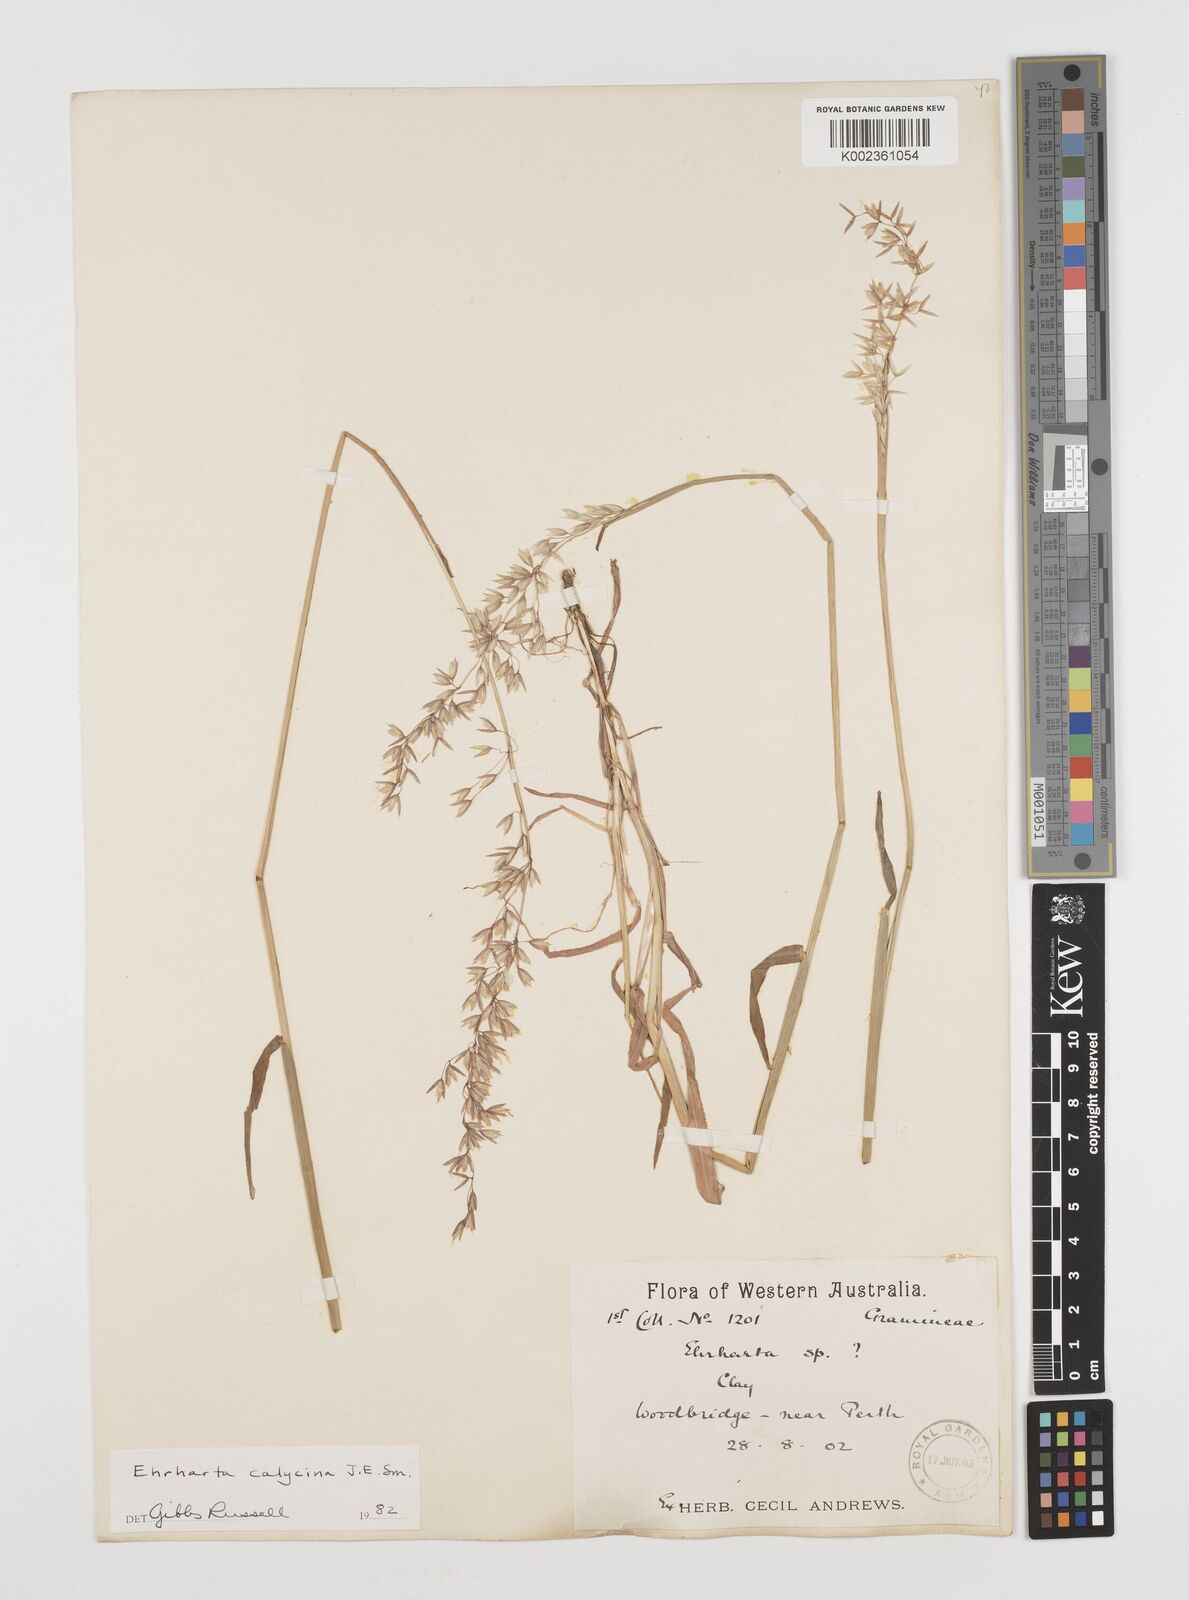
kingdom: Plantae
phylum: Tracheophyta
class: Liliopsida
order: Poales
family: Poaceae
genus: Ehrharta
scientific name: Ehrharta calycina
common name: Perennial veldtgrass
